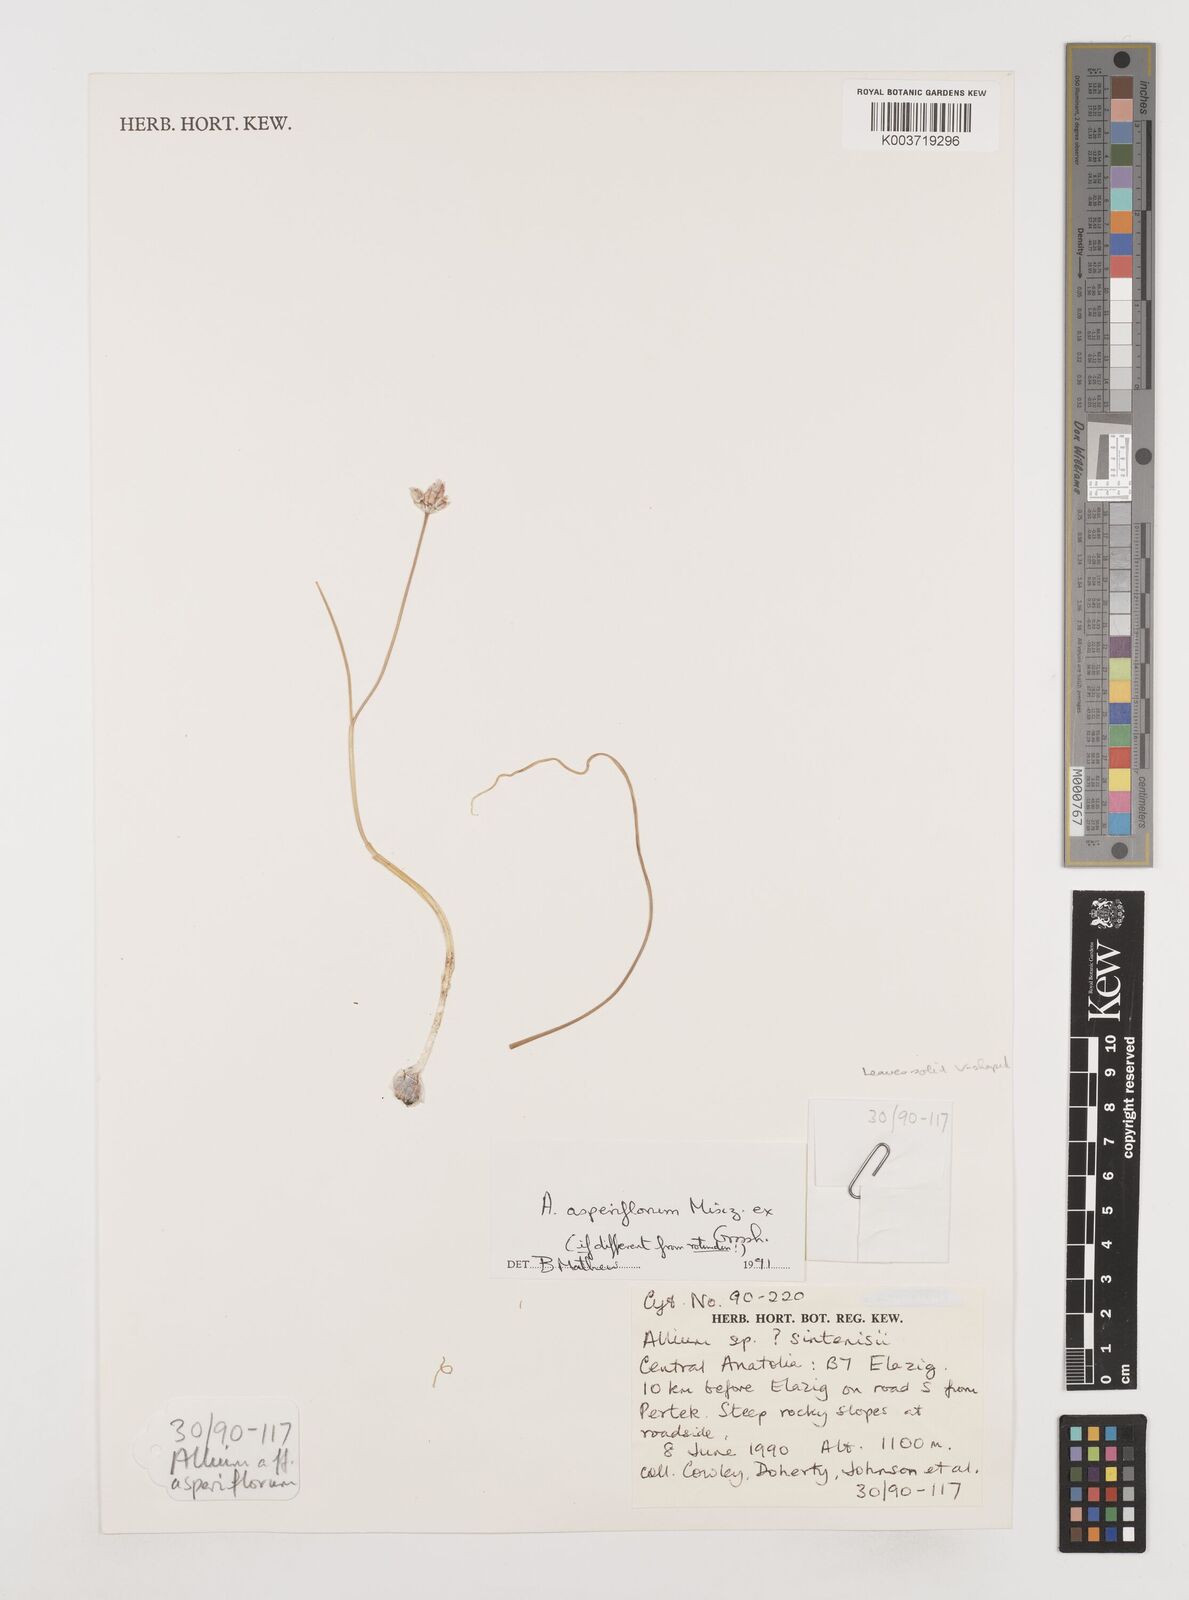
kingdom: Plantae
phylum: Tracheophyta
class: Liliopsida
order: Asparagales
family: Amaryllidaceae
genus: Allium
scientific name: Allium asperiflorum
